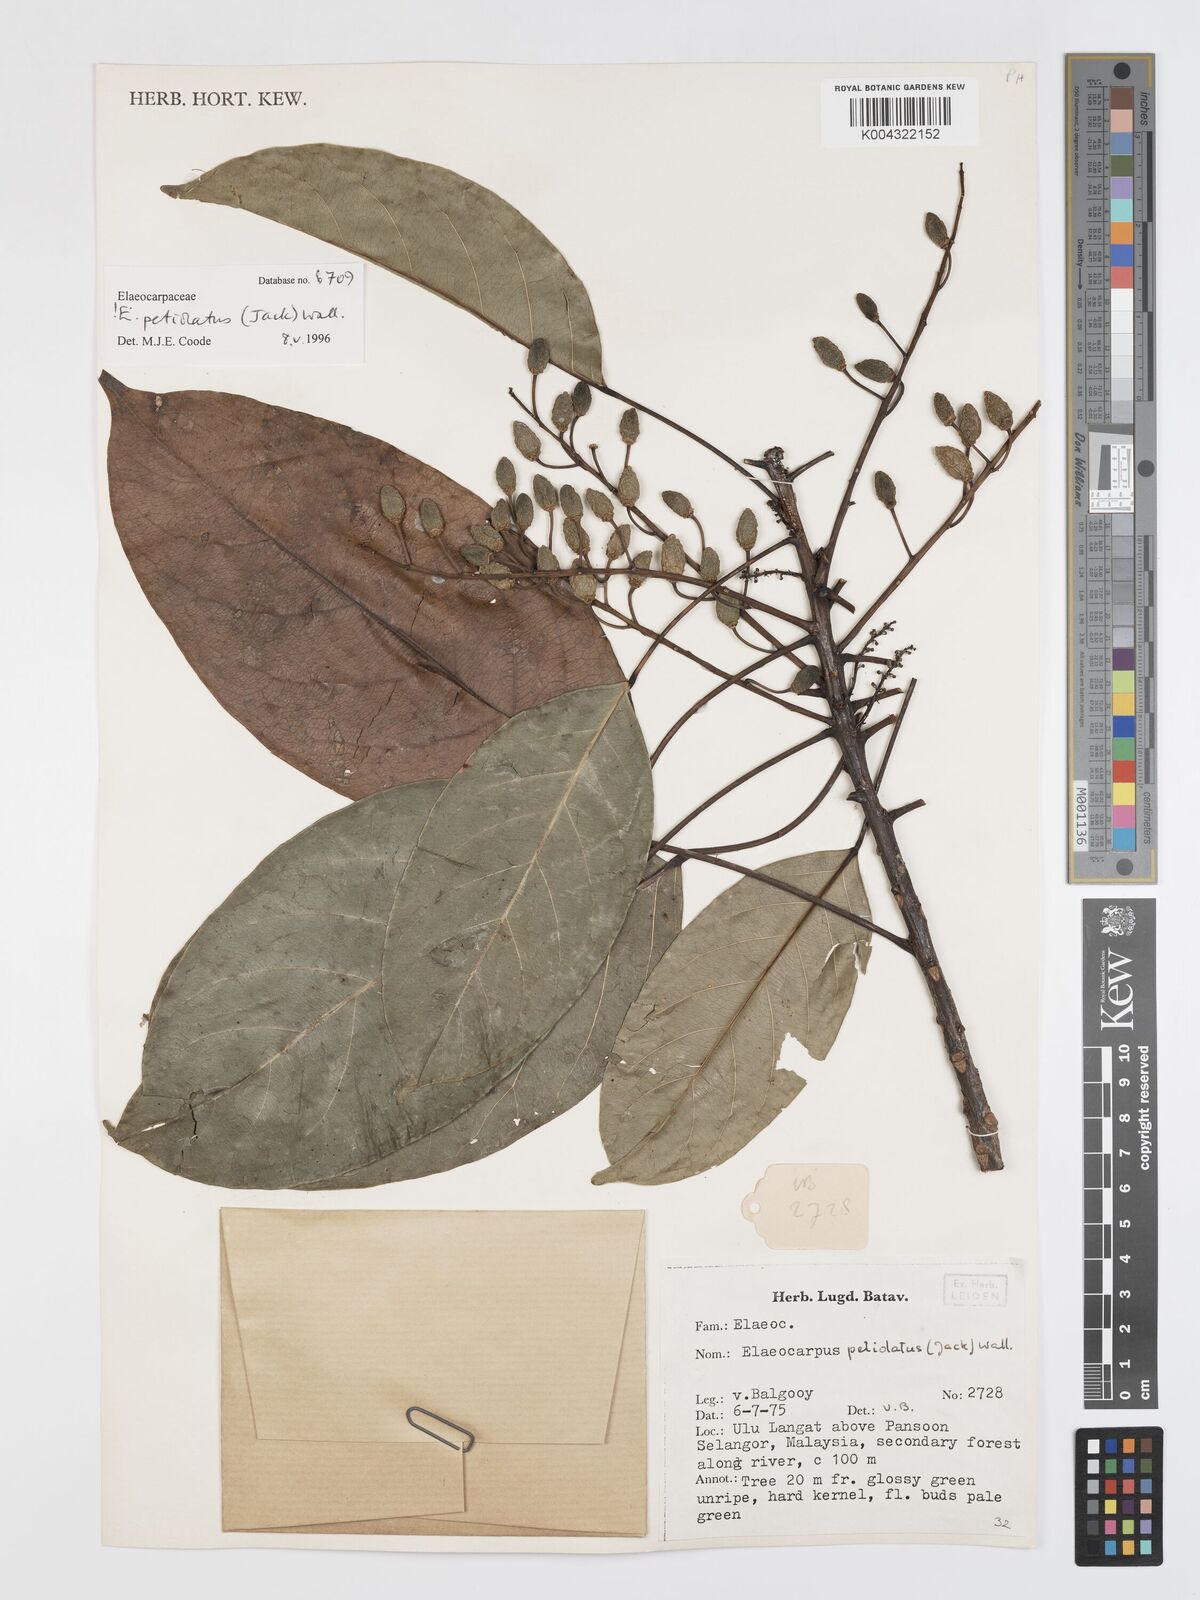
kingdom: Plantae
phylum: Tracheophyta
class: Magnoliopsida
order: Oxalidales
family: Elaeocarpaceae
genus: Elaeocarpus
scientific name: Elaeocarpus
